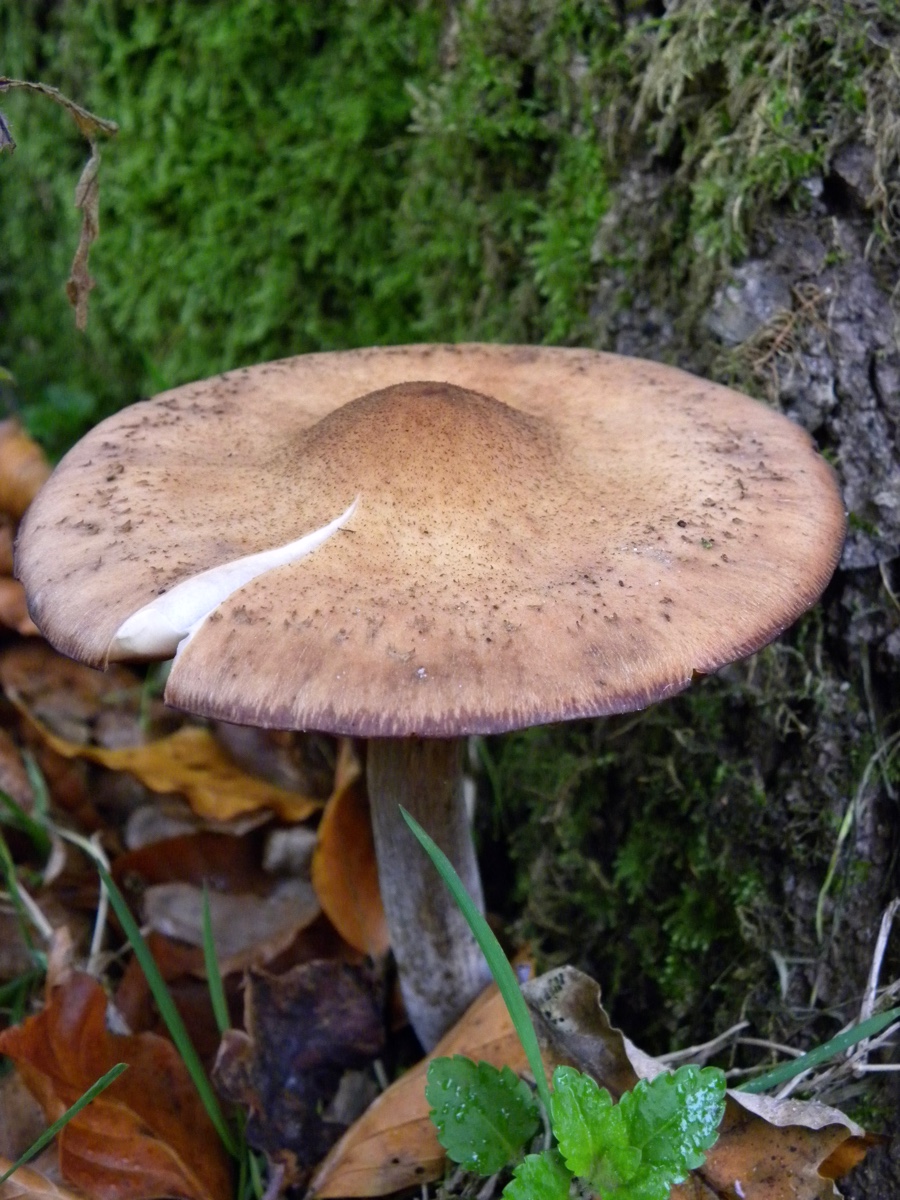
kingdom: Fungi
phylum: Basidiomycota
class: Agaricomycetes
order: Agaricales
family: Physalacriaceae
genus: Armillaria
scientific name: Armillaria lutea
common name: køllestokket honningsvamp
